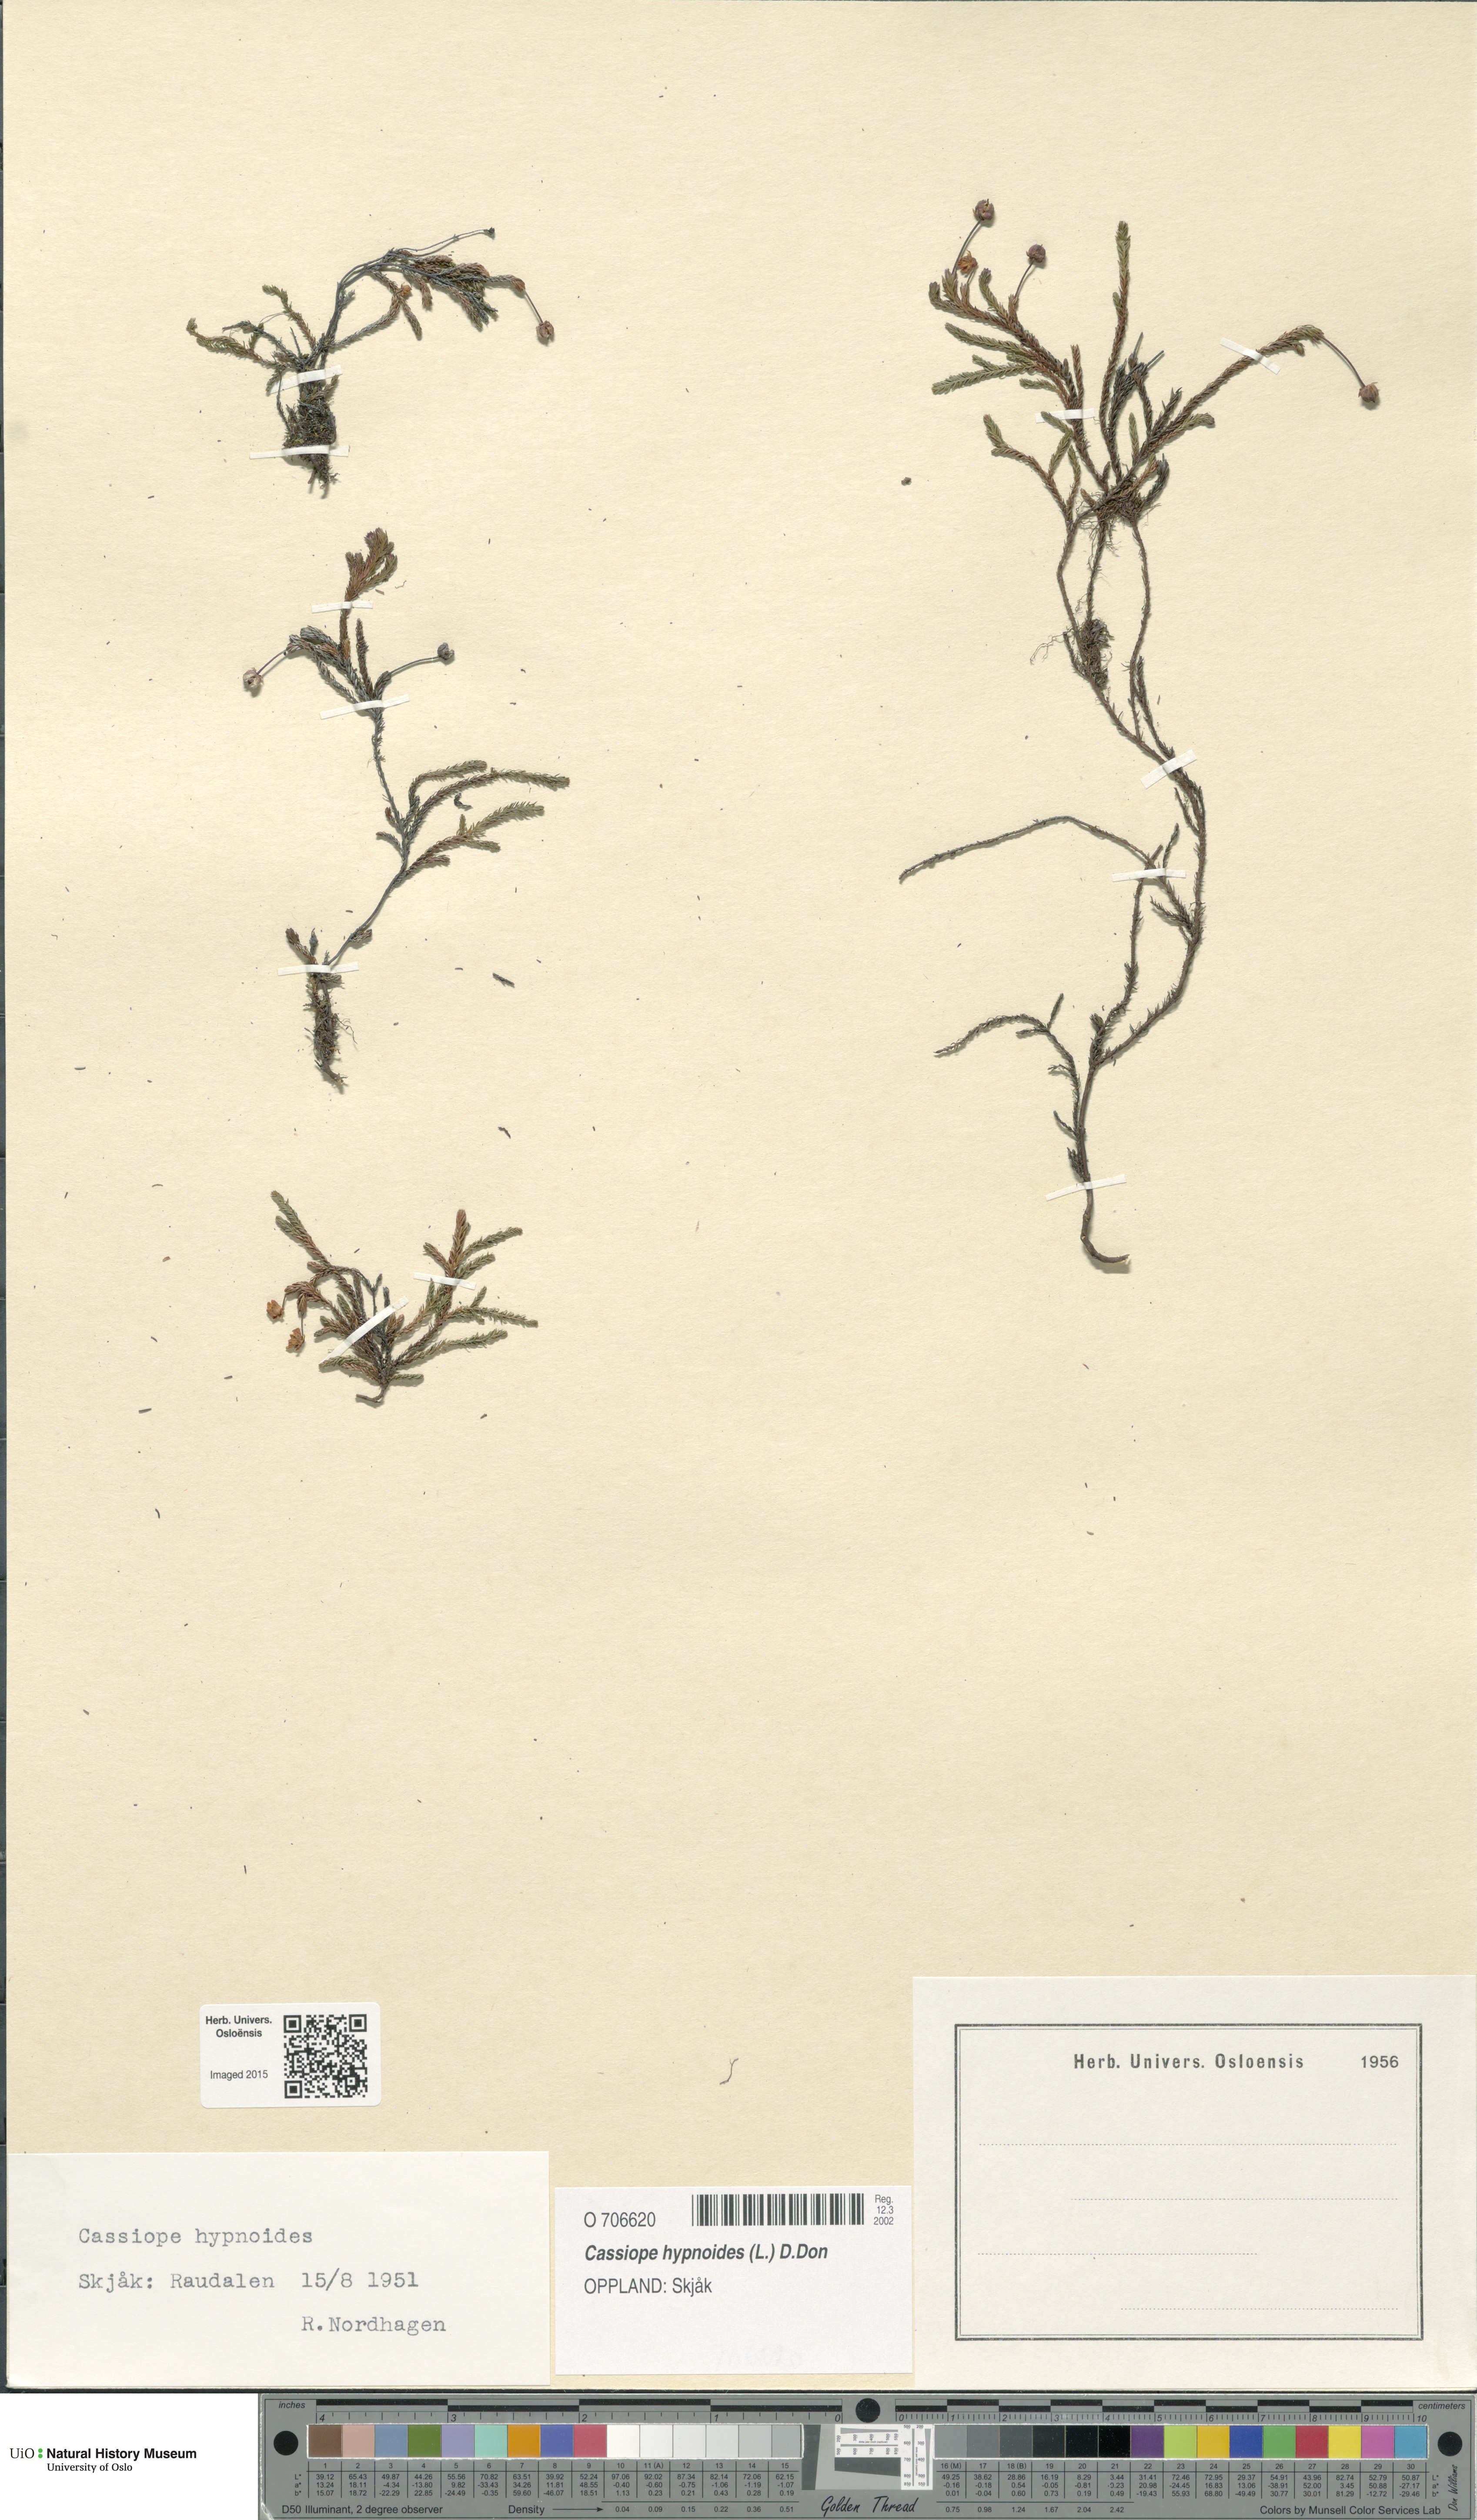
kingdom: Plantae
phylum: Tracheophyta
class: Magnoliopsida
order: Ericales
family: Ericaceae
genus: Harrimanella
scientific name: Harrimanella hypnoides
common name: Moss bell heather
